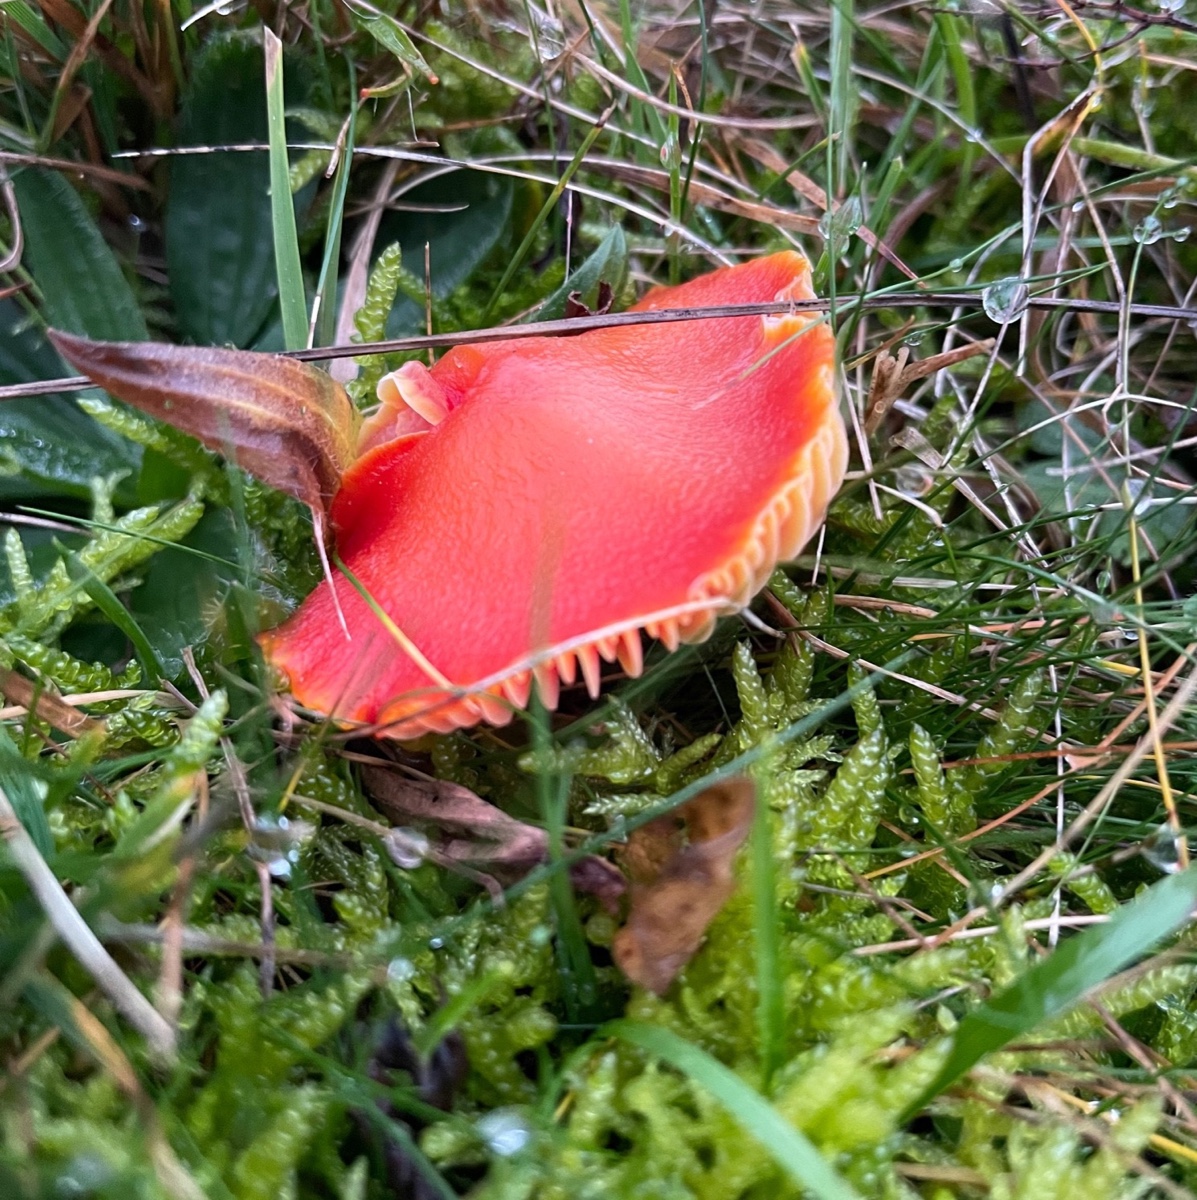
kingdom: Fungi
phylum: Basidiomycota
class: Agaricomycetes
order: Agaricales
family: Hygrophoraceae
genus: Hygrocybe
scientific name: Hygrocybe coccinea
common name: cinnober-vokshat
